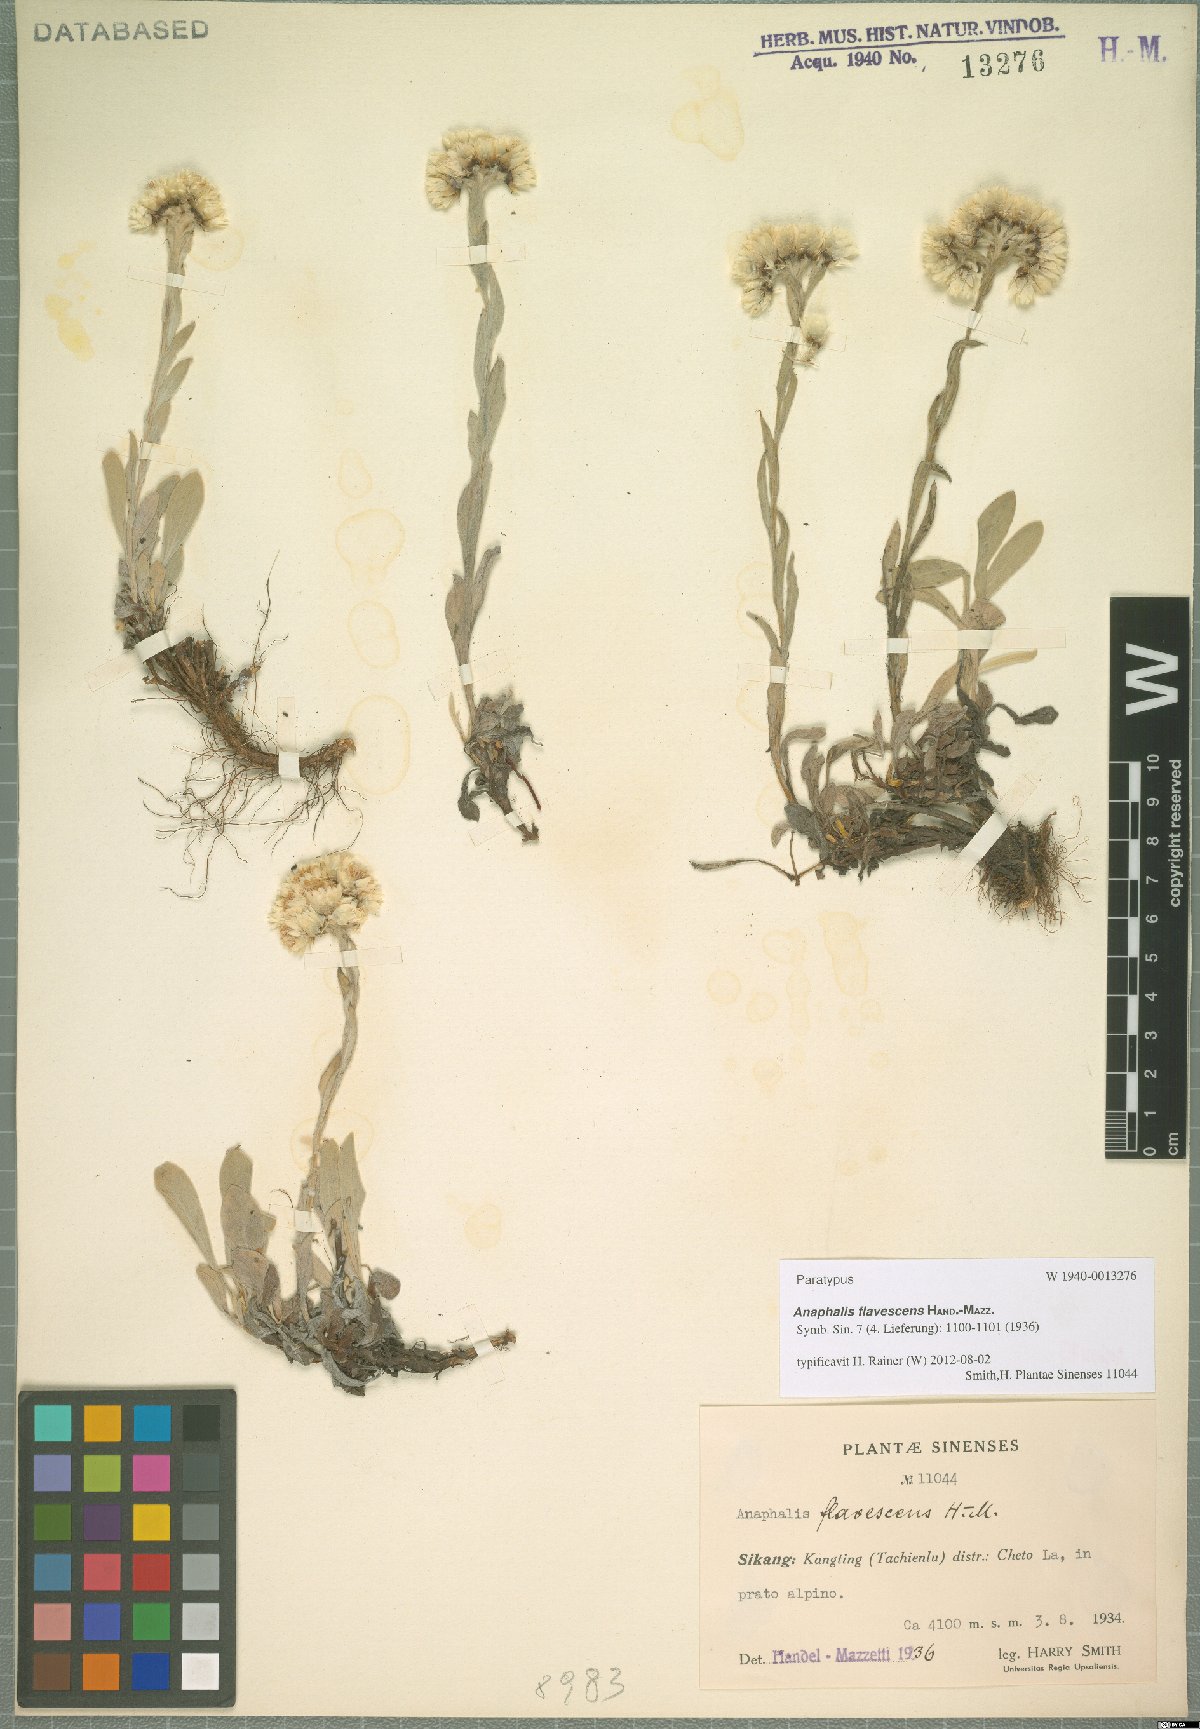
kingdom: Plantae
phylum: Tracheophyta
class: Magnoliopsida
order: Asterales
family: Asteraceae
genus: Anaphalis
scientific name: Anaphalis flavescens
